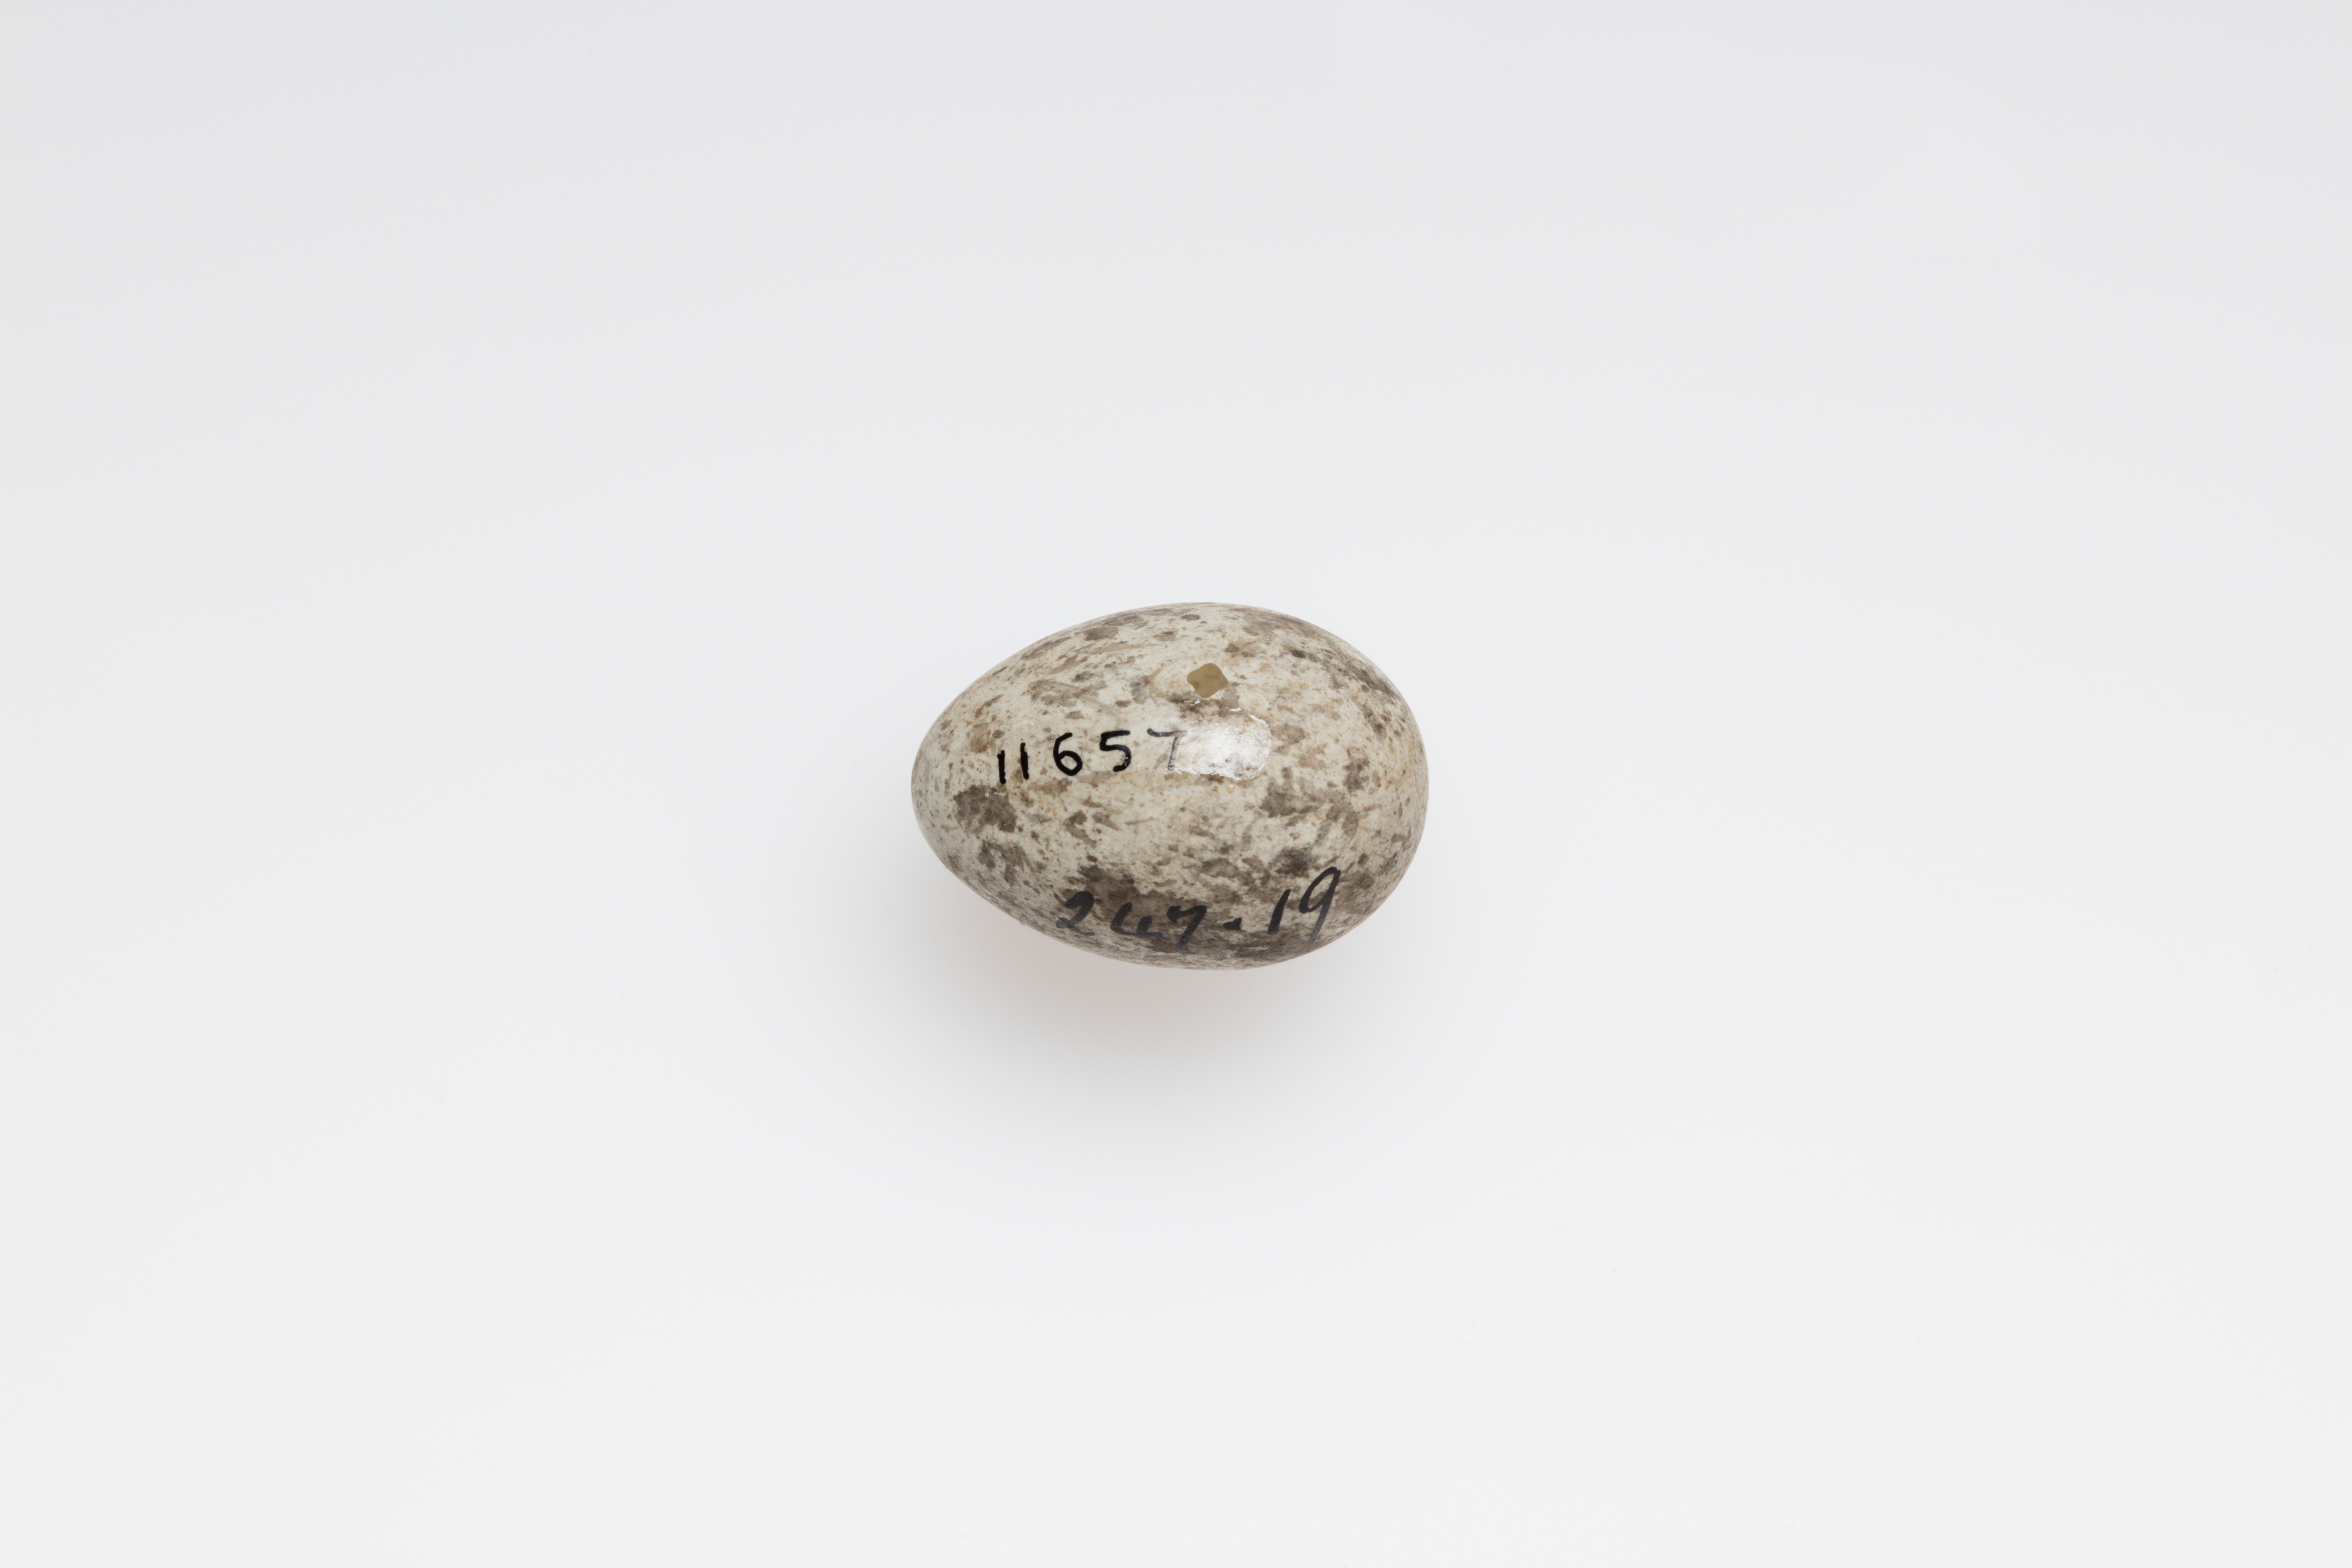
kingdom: Animalia
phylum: Chordata
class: Aves
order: Passeriformes
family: Passeridae
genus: Passer
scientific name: Passer domesticus
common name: House sparrow
